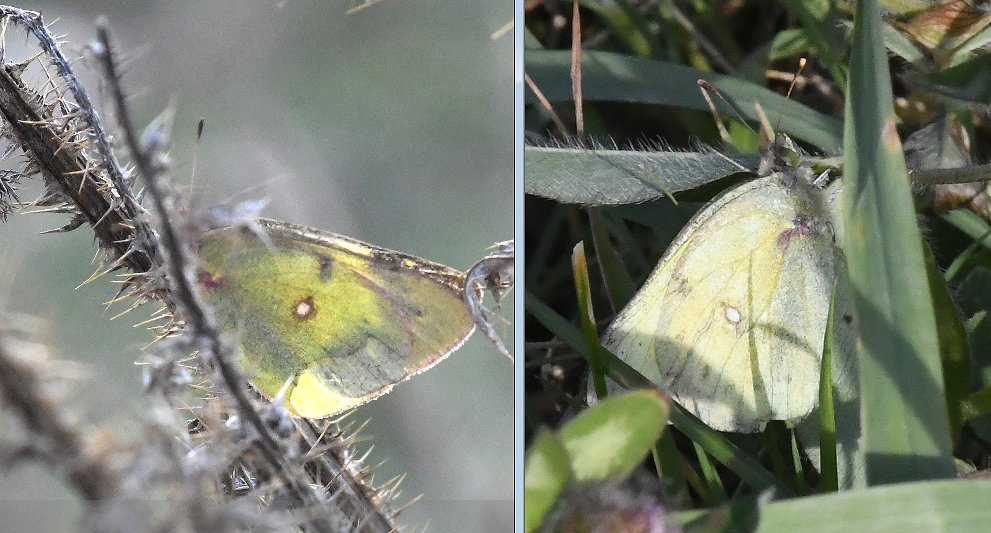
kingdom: Animalia
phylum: Arthropoda
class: Insecta
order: Lepidoptera
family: Pieridae
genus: Colias
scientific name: Colias philodice
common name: Clouded Sulphur
